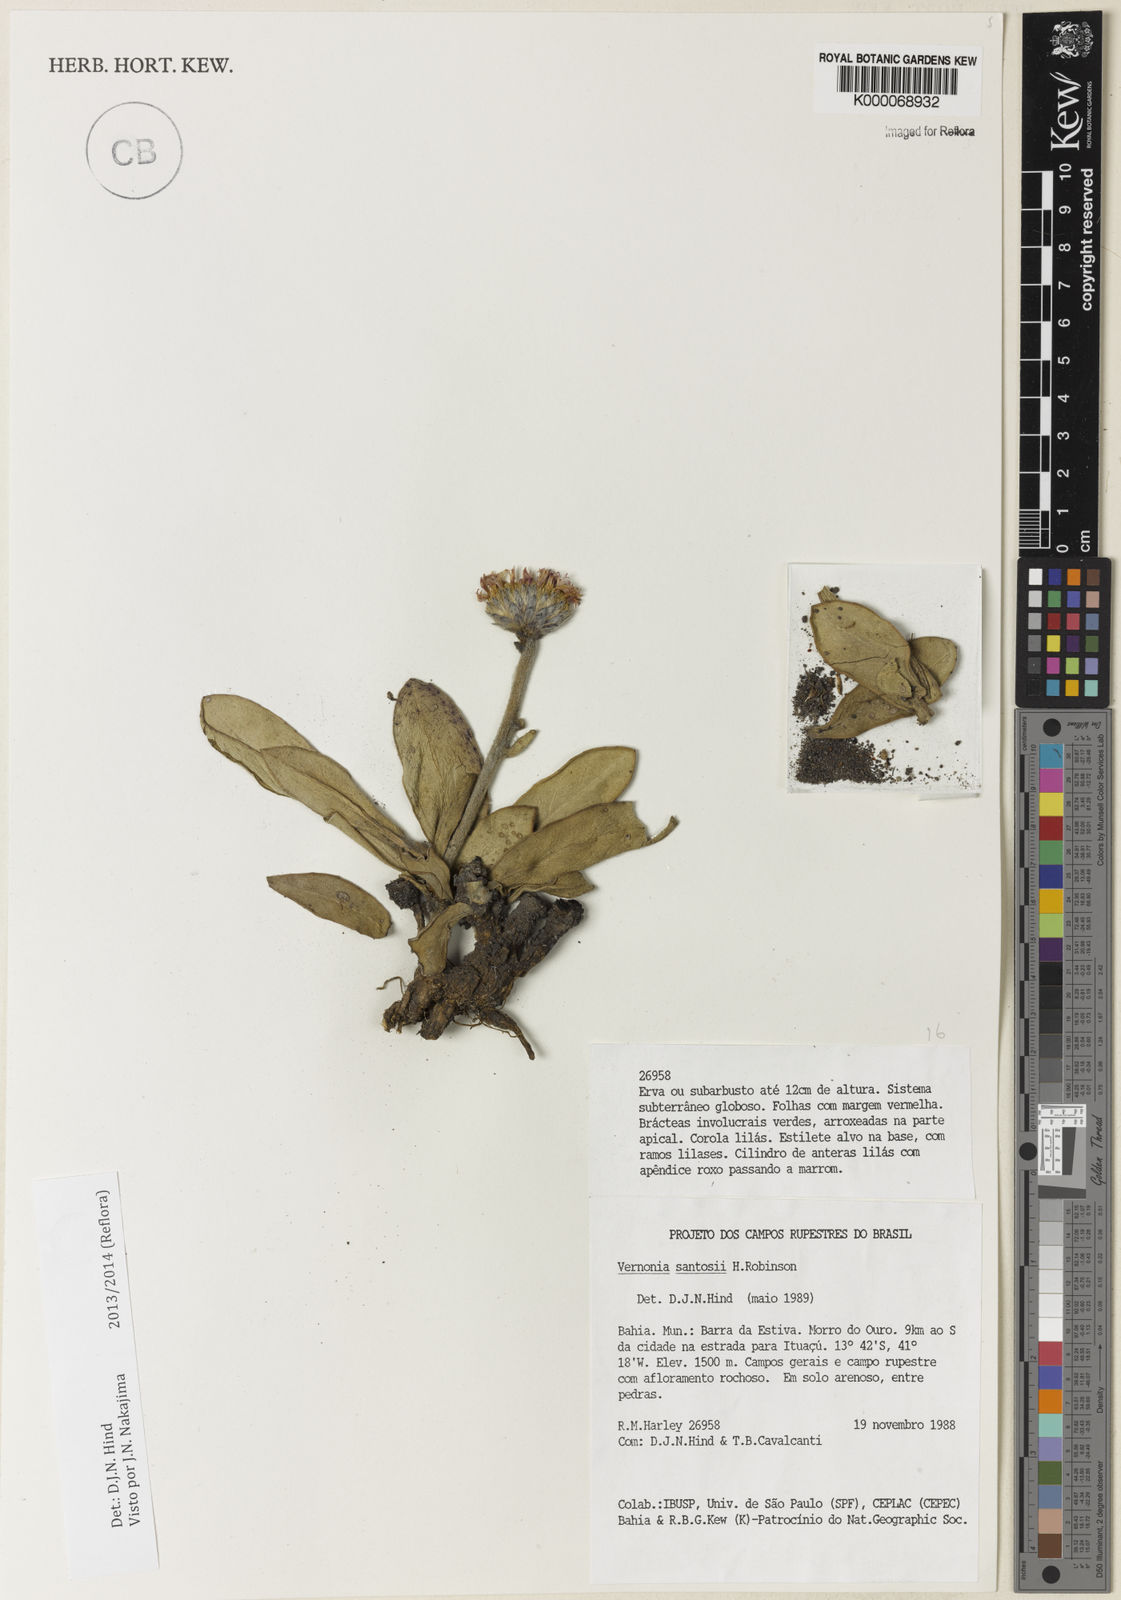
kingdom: Plantae
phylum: Tracheophyta
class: Magnoliopsida
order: Asterales
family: Asteraceae
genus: Lessingianthus
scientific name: Lessingianthus santosii
